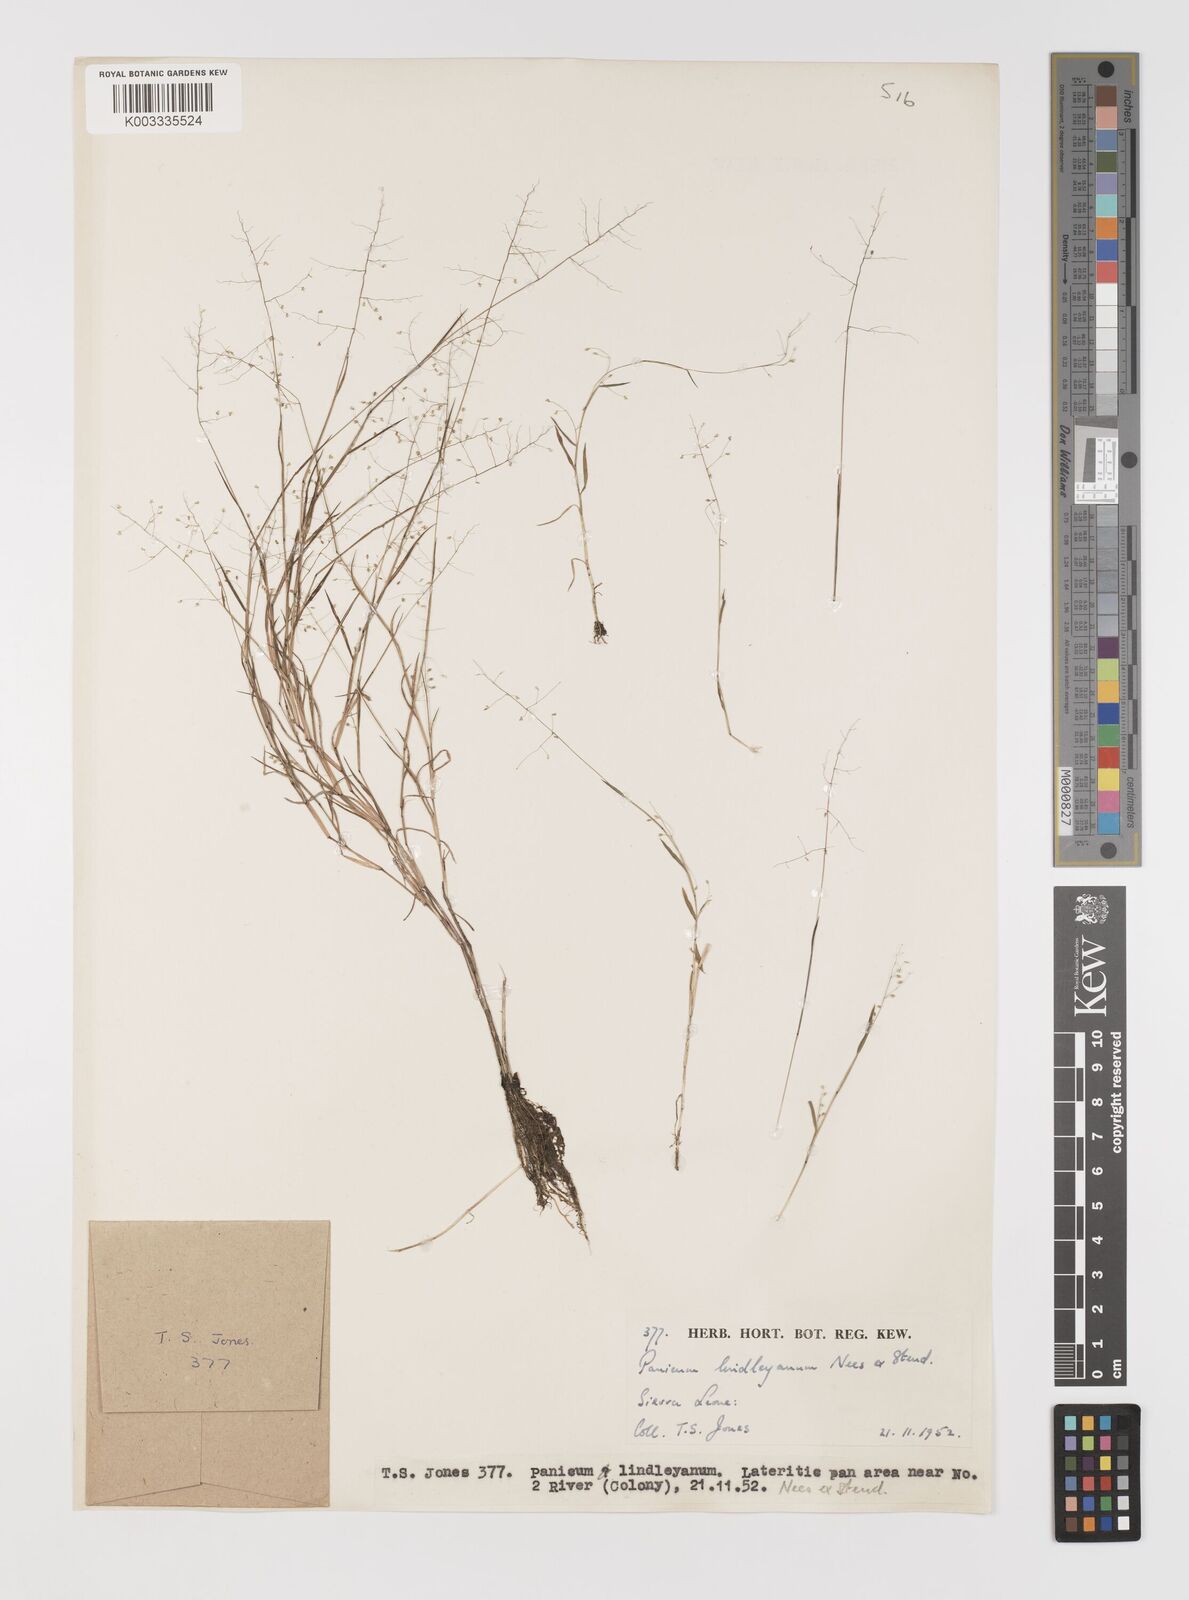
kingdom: Plantae
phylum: Tracheophyta
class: Liliopsida
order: Poales
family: Poaceae
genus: Trichanthecium
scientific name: Trichanthecium tenellum
